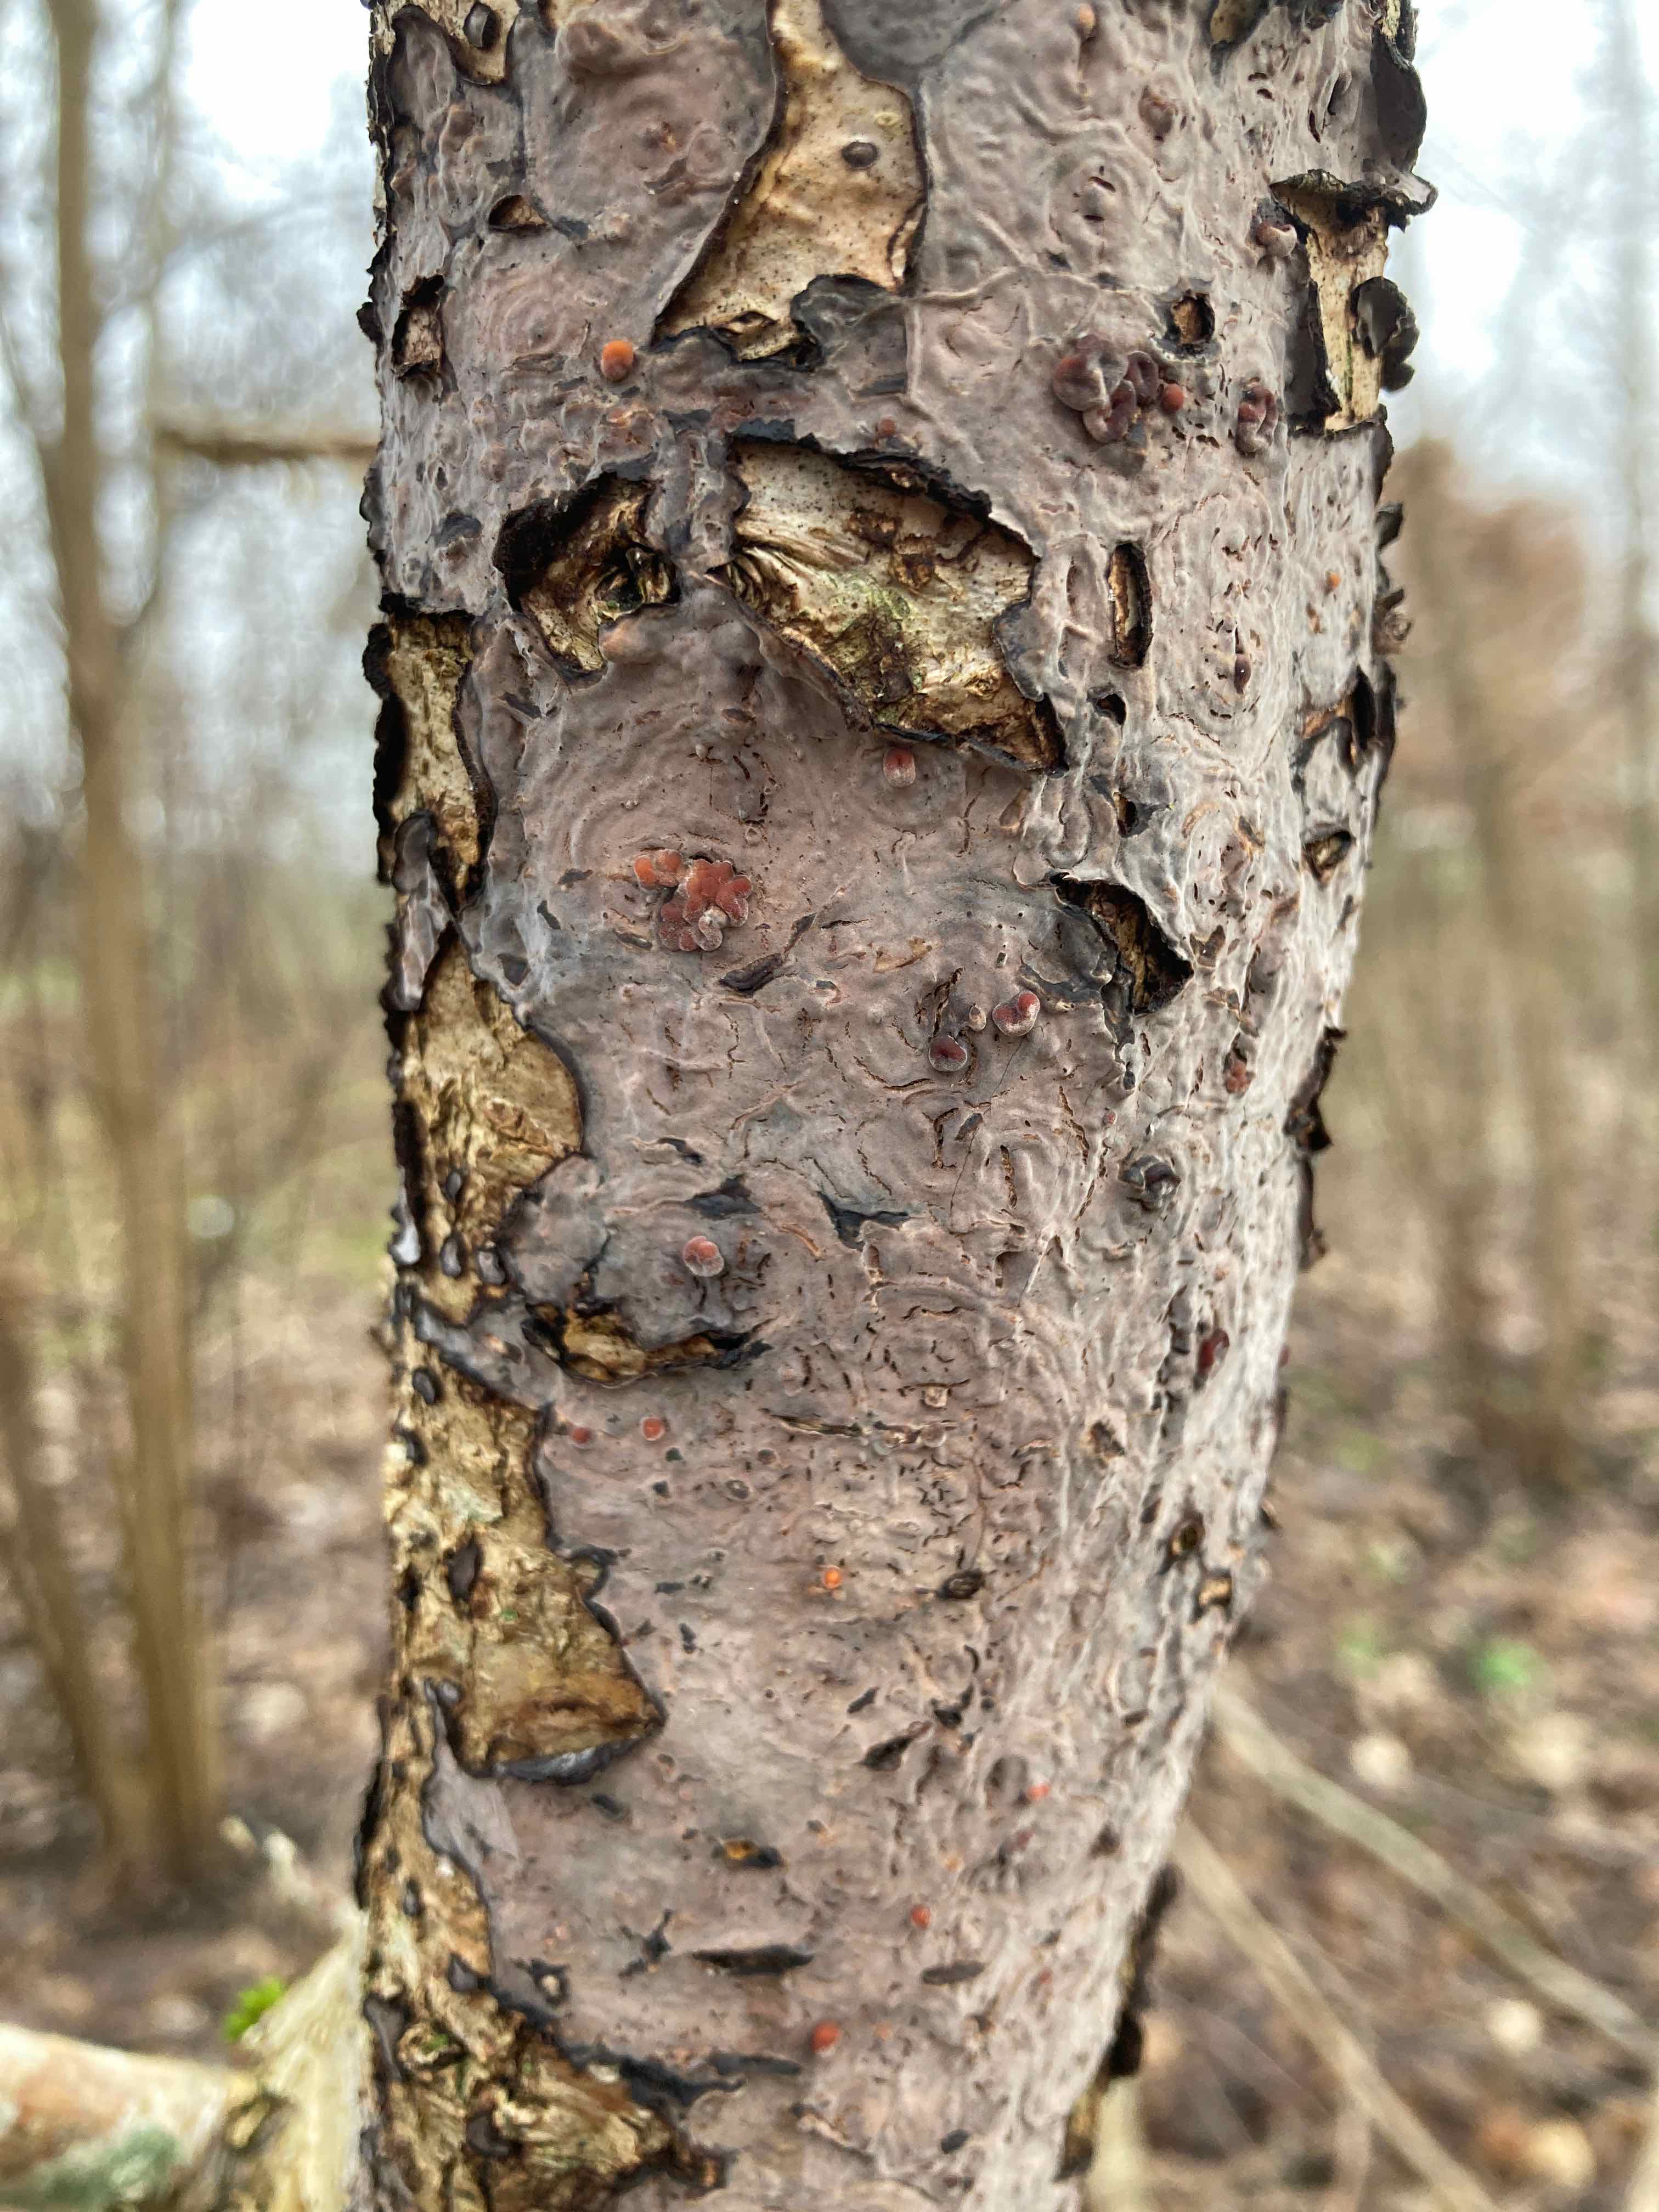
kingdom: Fungi
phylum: Basidiomycota
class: Agaricomycetes
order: Russulales
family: Peniophoraceae
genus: Peniophora
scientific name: Peniophora quercina
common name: ege-voksskind
